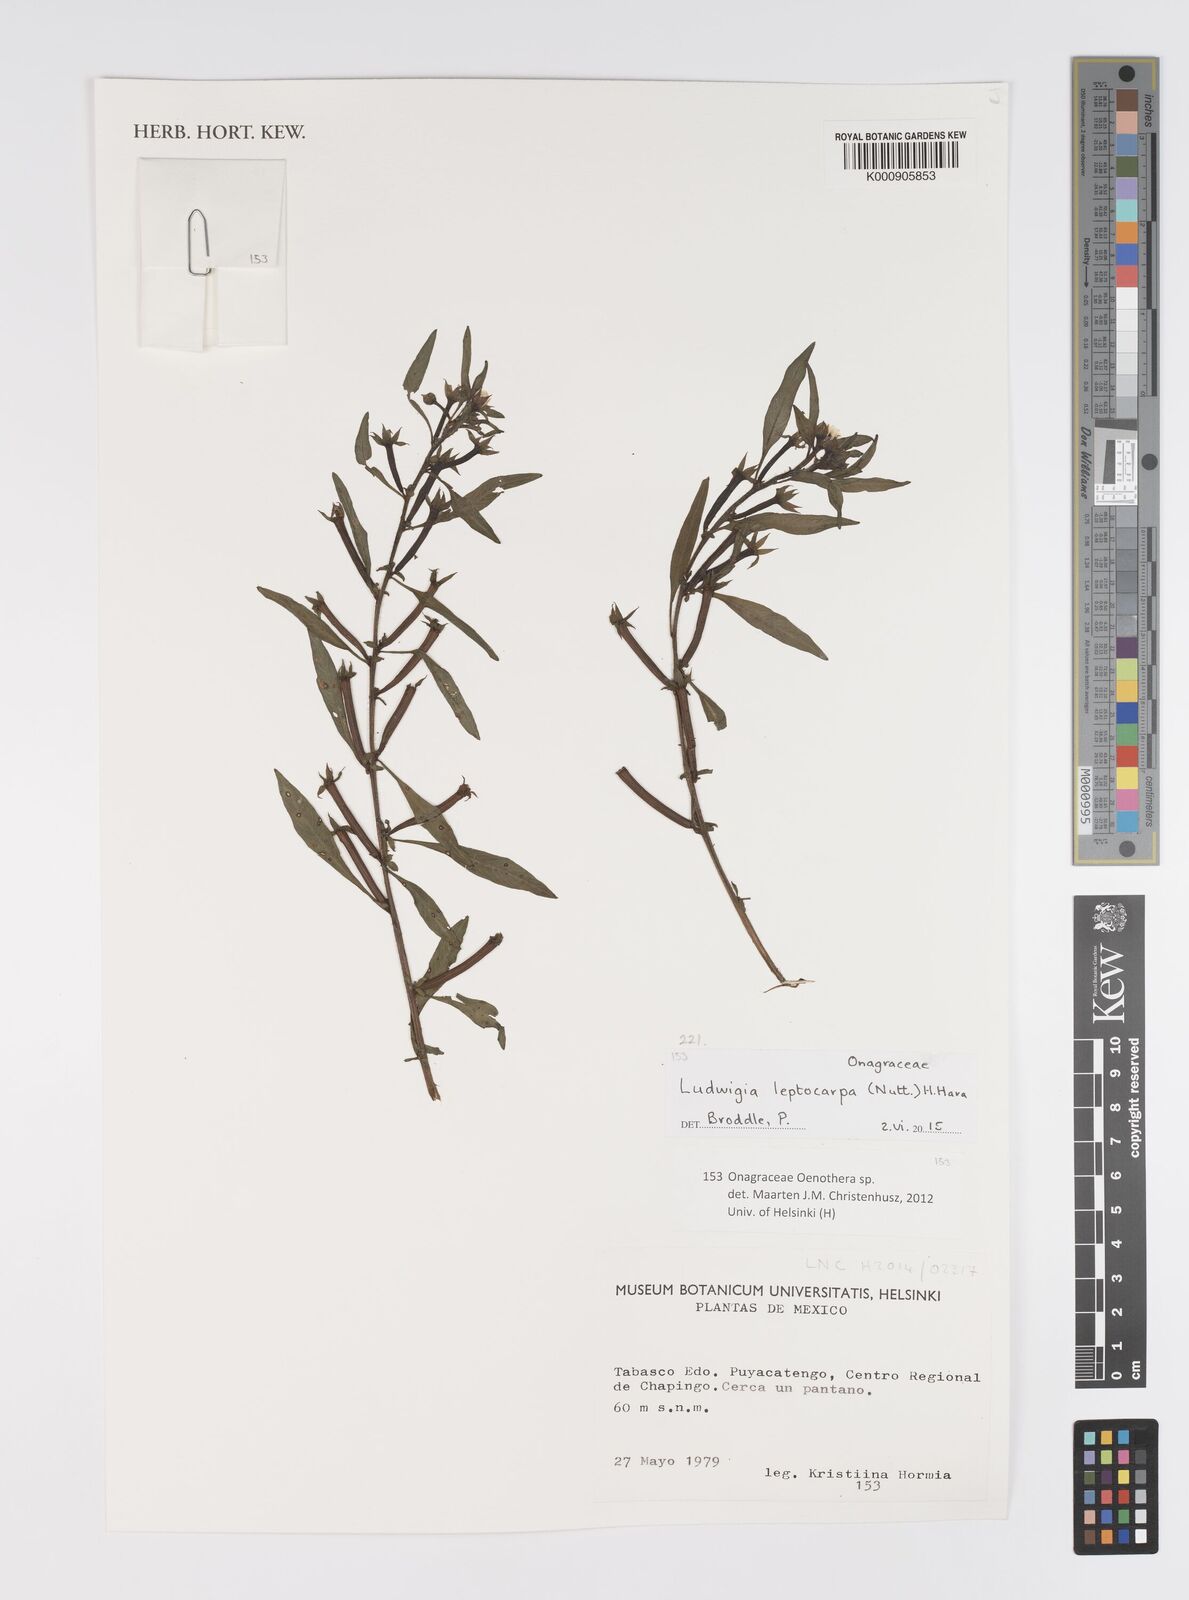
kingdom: Plantae
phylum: Tracheophyta
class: Magnoliopsida
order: Myrtales
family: Onagraceae
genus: Ludwigia
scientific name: Ludwigia leptocarpa
